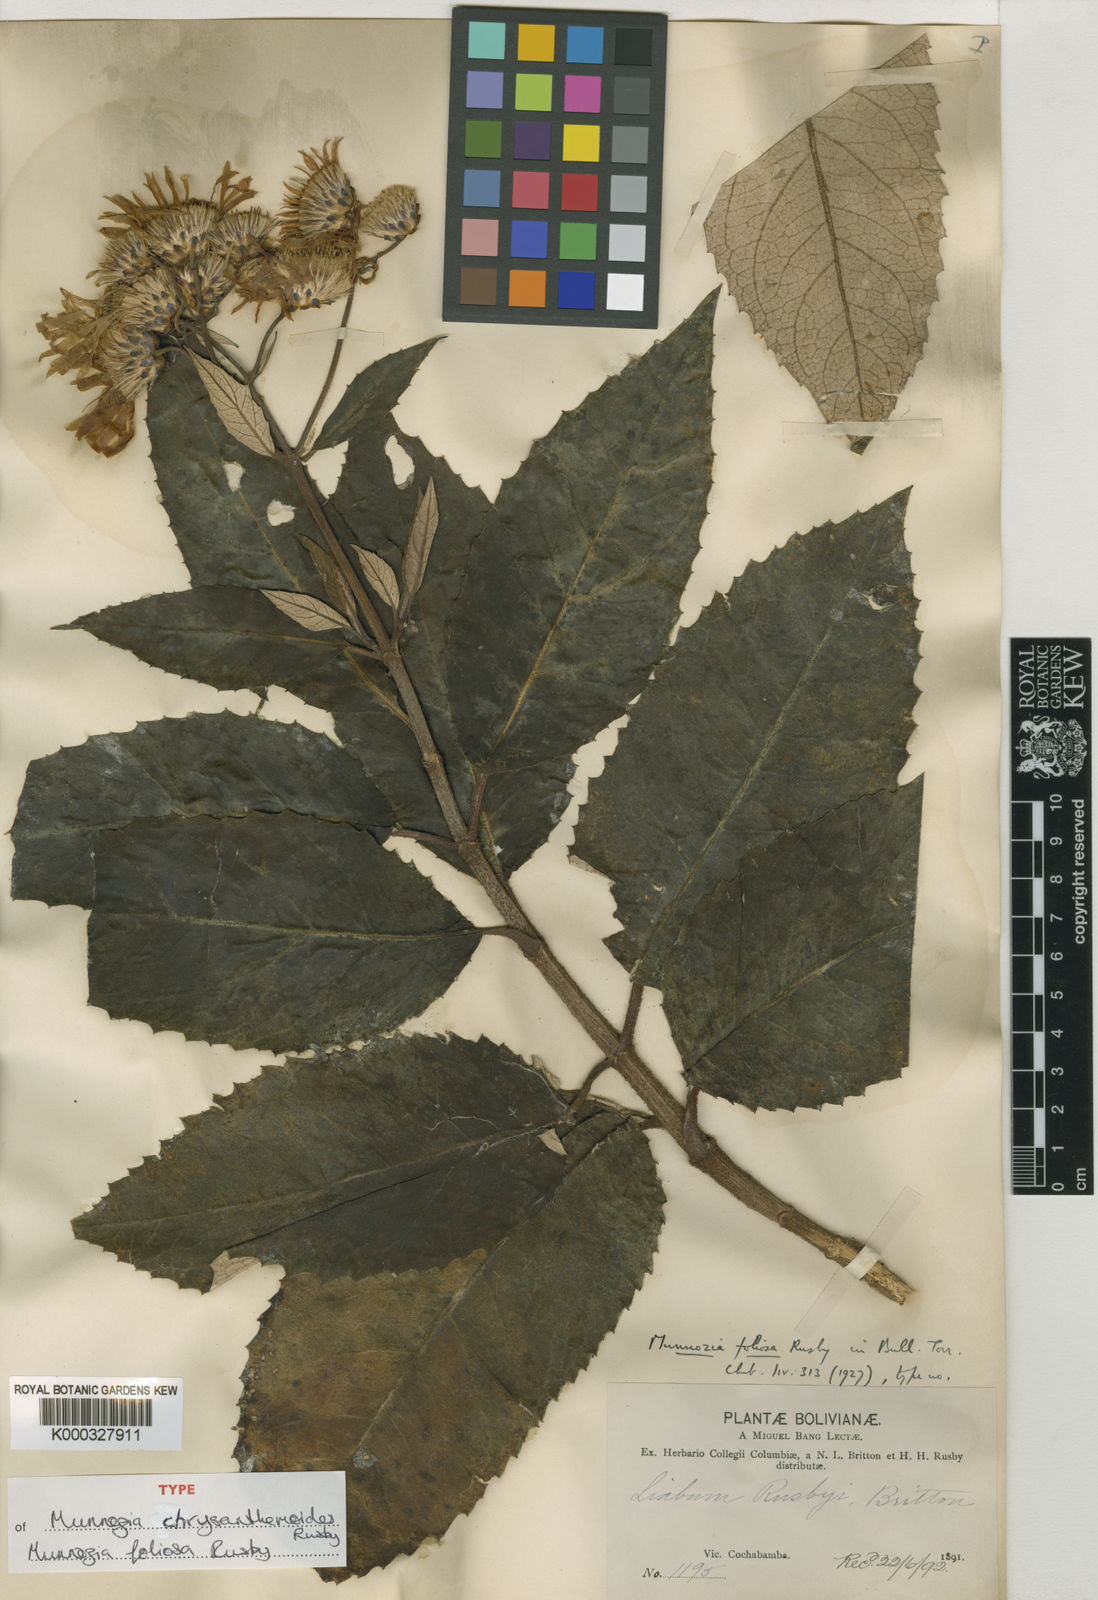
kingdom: Plantae
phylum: Tracheophyta
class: Magnoliopsida
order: Asterales
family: Asteraceae
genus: Munnozia
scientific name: Munnozia foliosa
